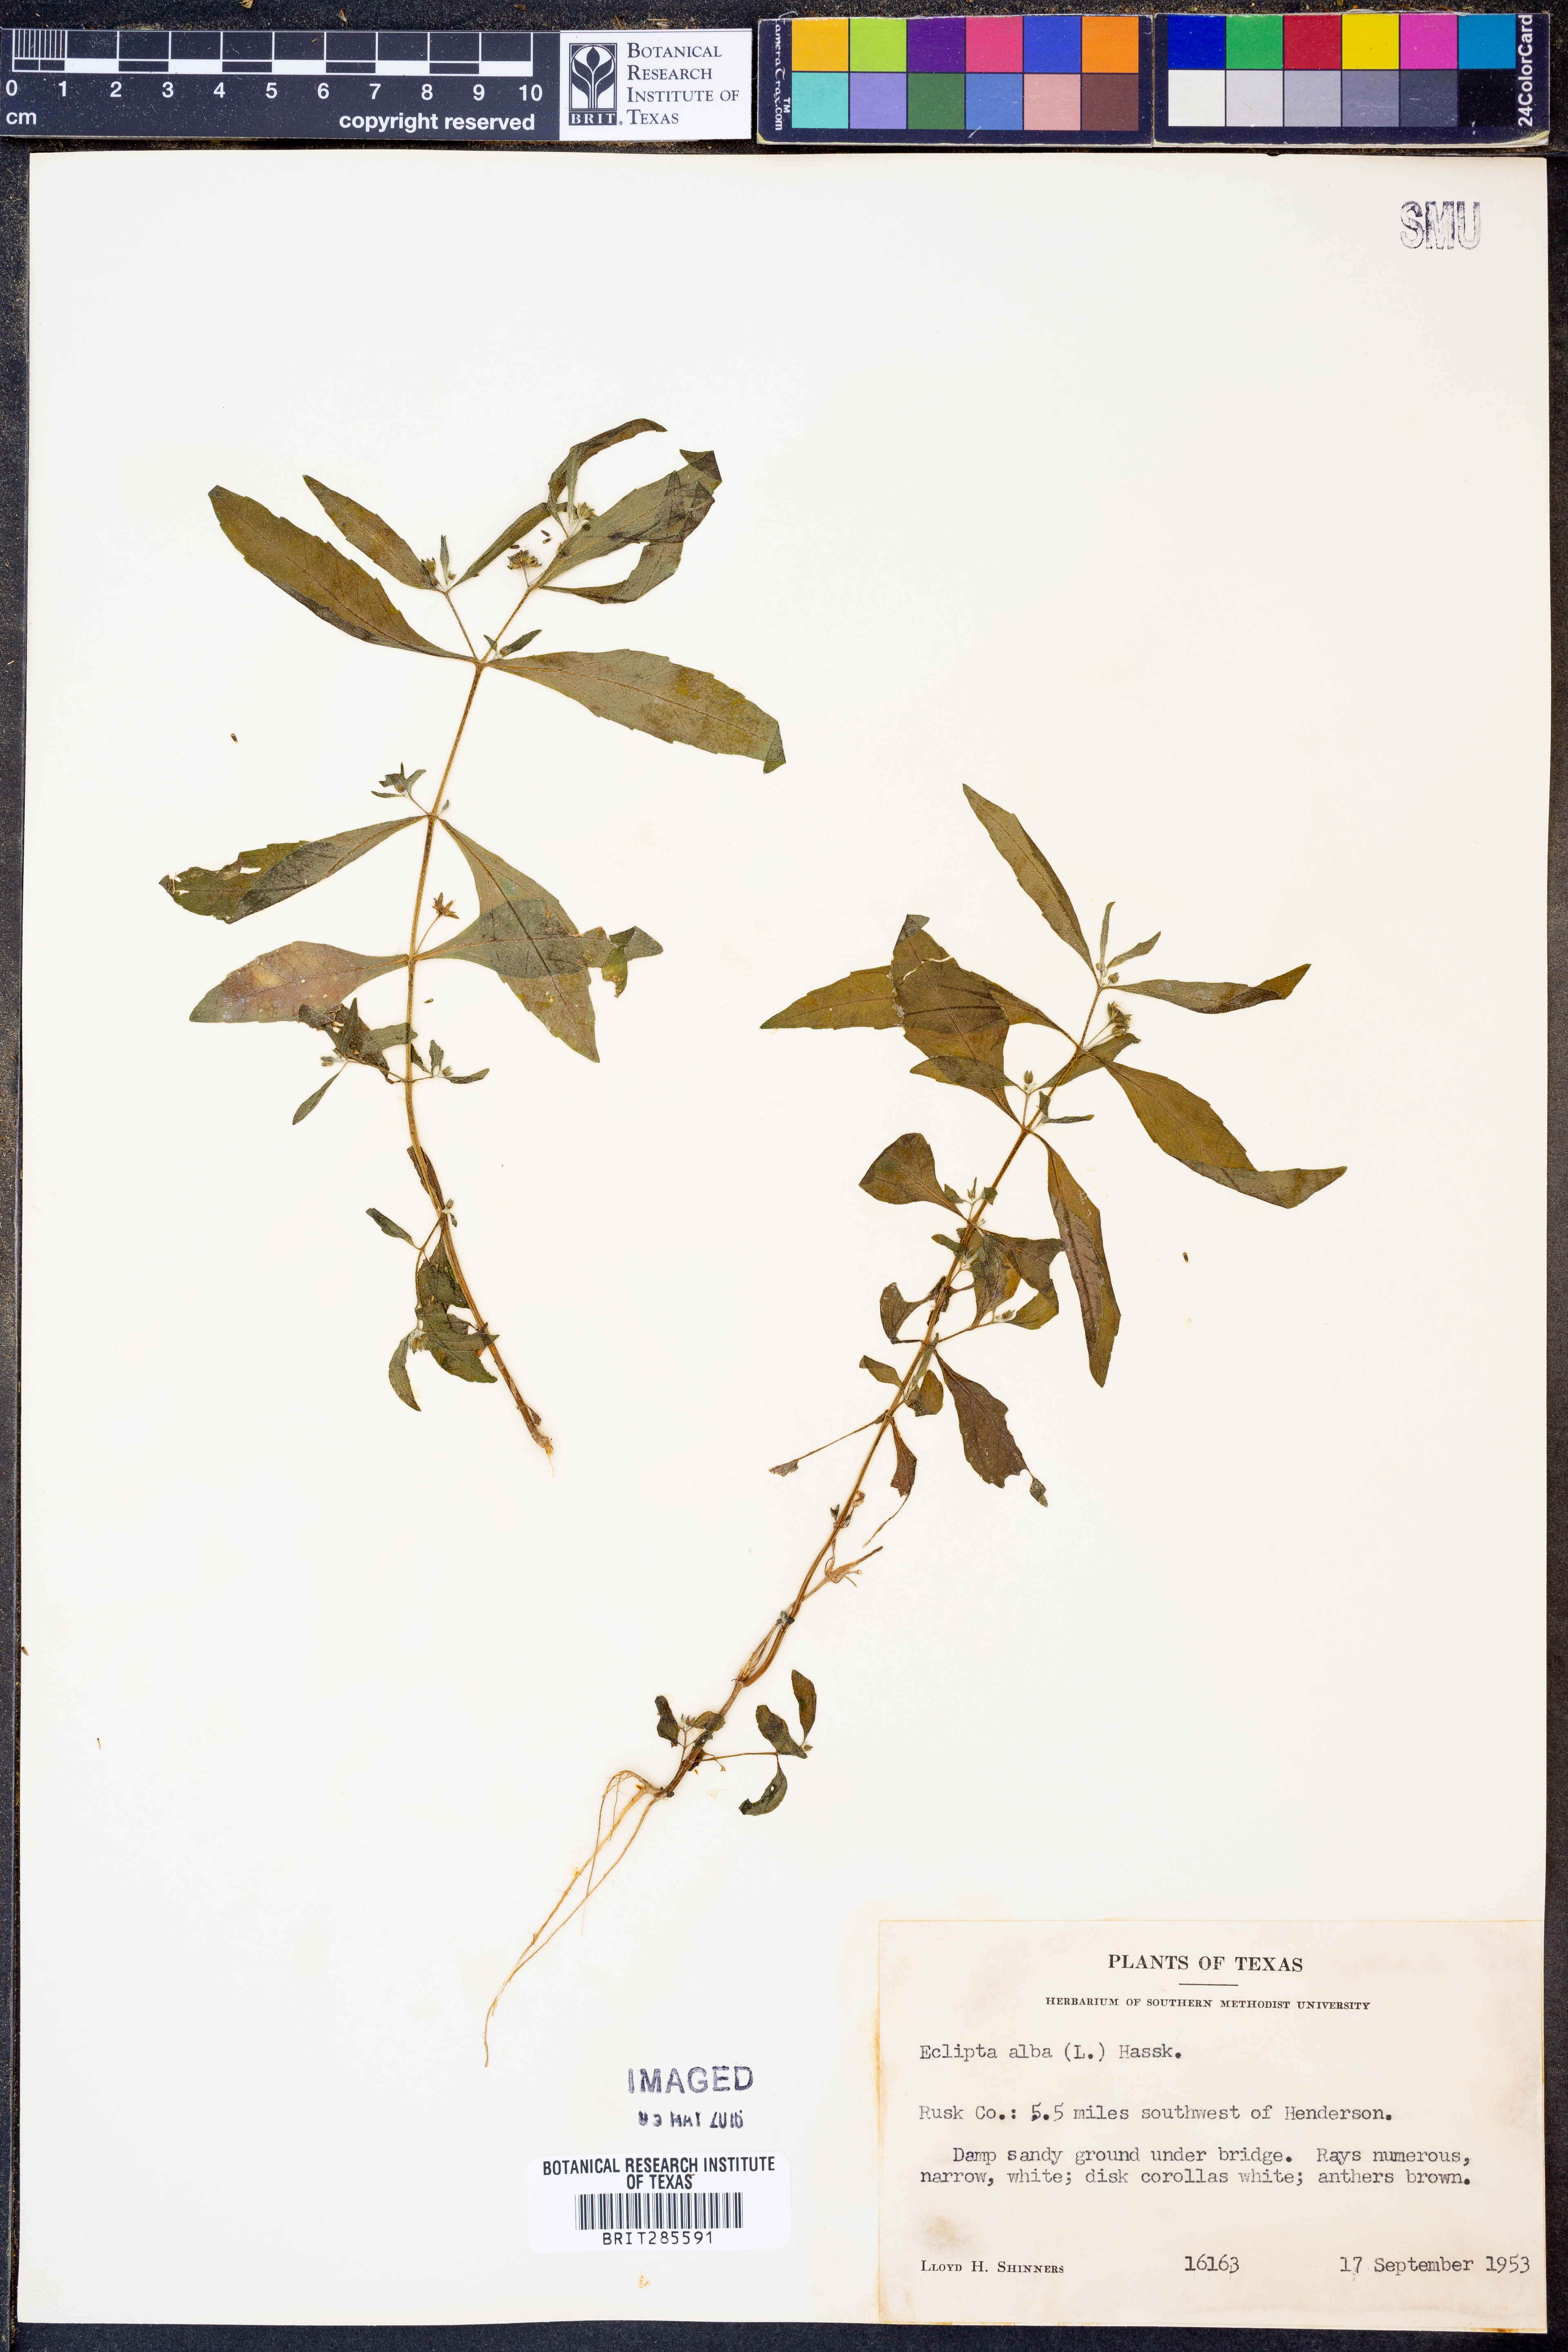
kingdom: Plantae
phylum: Tracheophyta
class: Magnoliopsida
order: Asterales
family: Asteraceae
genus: Eclipta
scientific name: Eclipta alba
